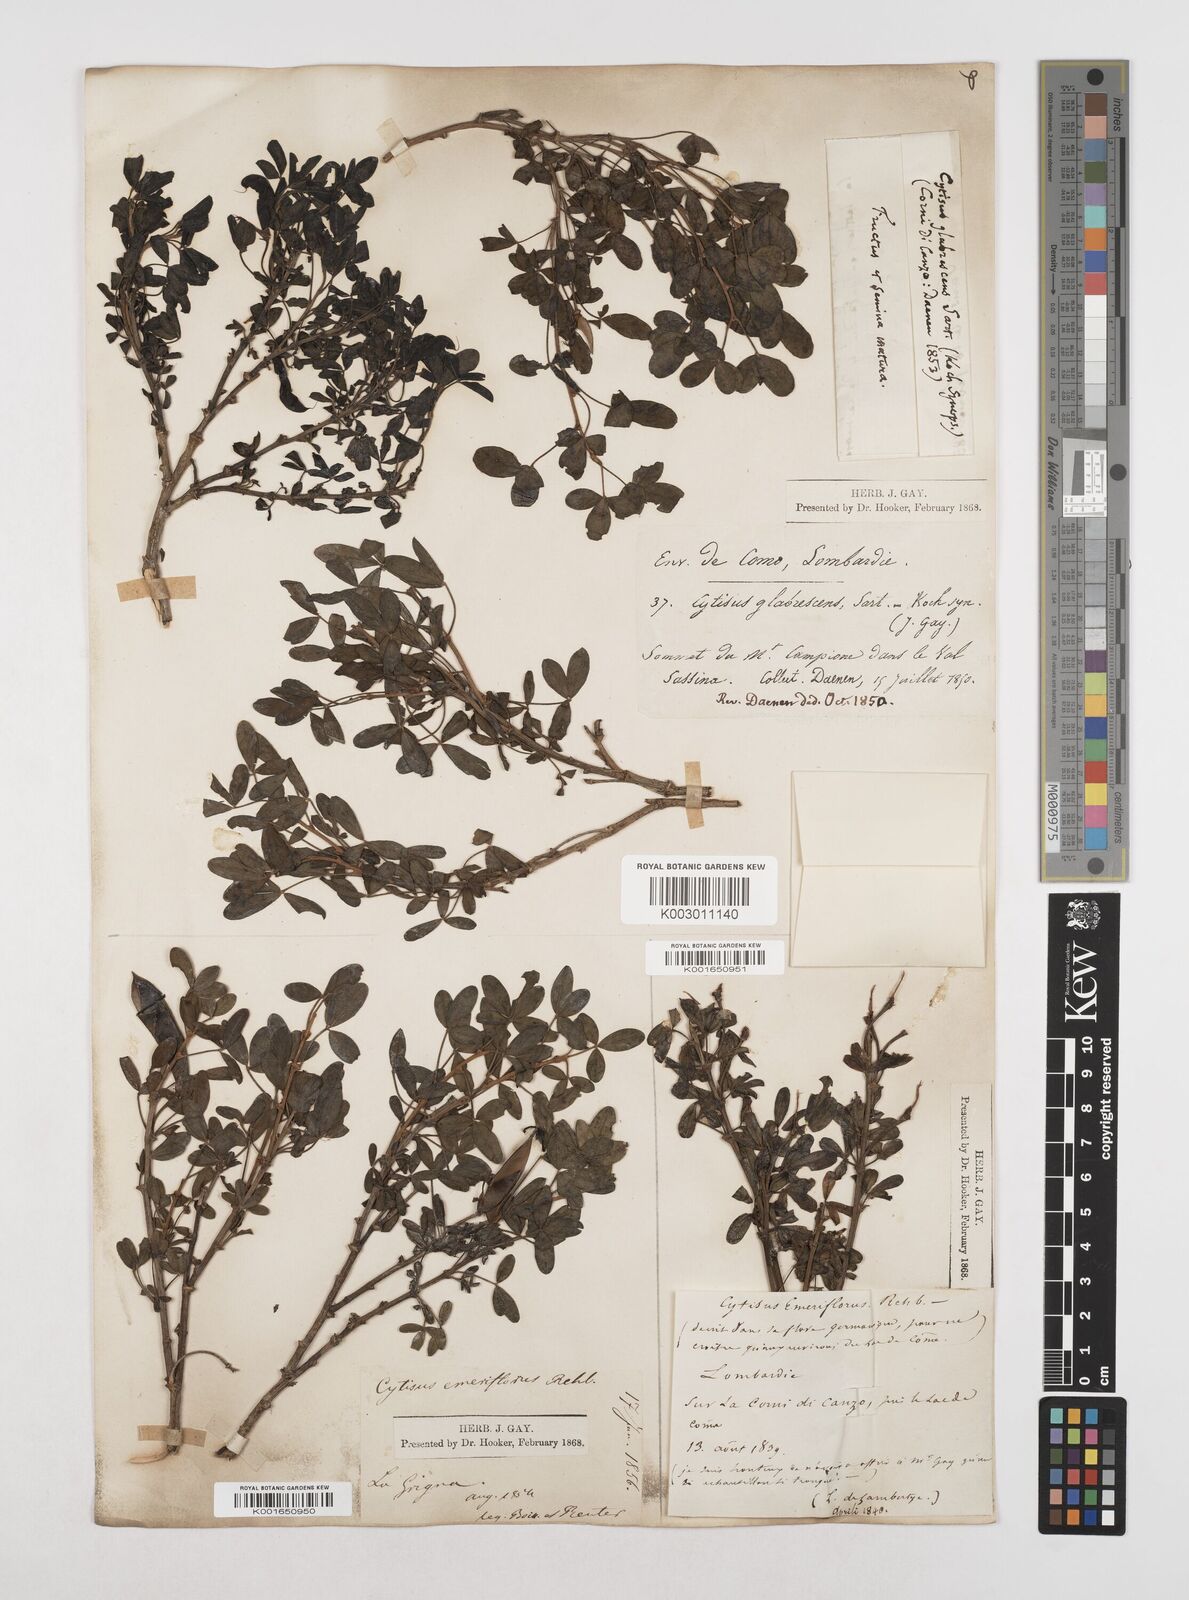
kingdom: Plantae
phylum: Tracheophyta
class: Magnoliopsida
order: Fabales
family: Fabaceae
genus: Cytisus
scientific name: Cytisus emeriflorus
